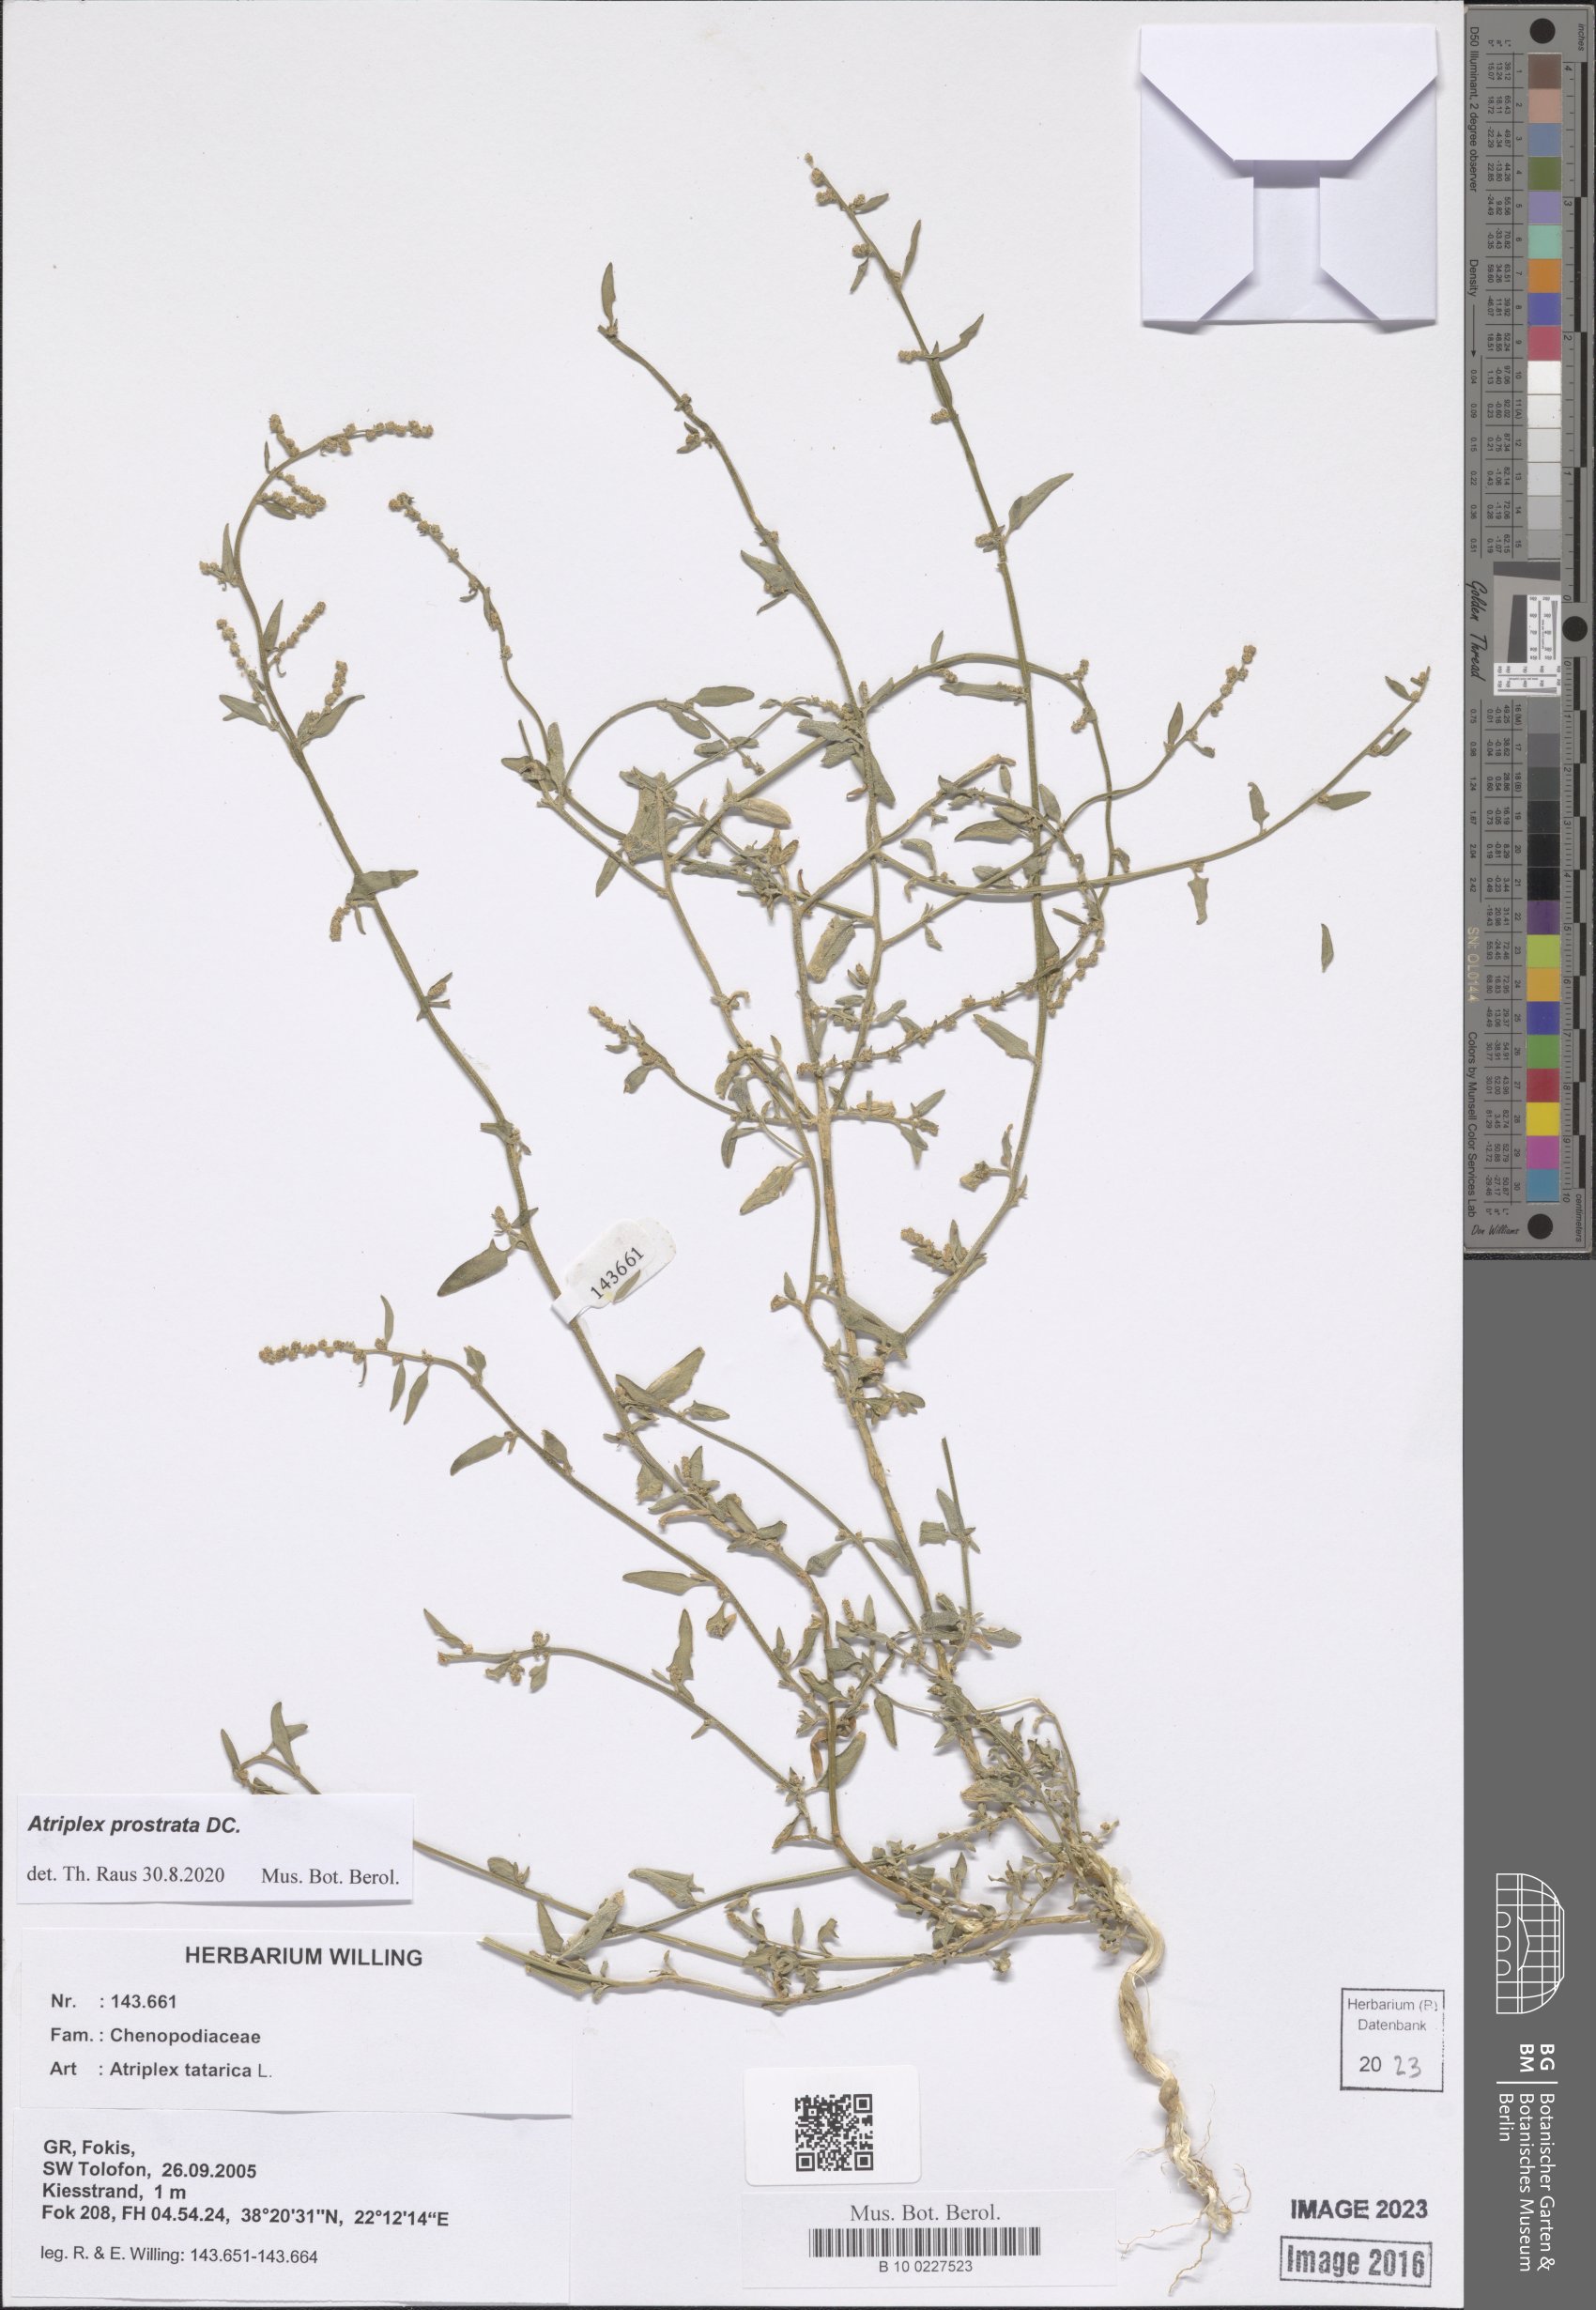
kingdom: Plantae
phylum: Tracheophyta
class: Magnoliopsida
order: Caryophyllales
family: Amaranthaceae
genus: Atriplex
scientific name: Atriplex prostrata
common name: Spear-leaved orache
